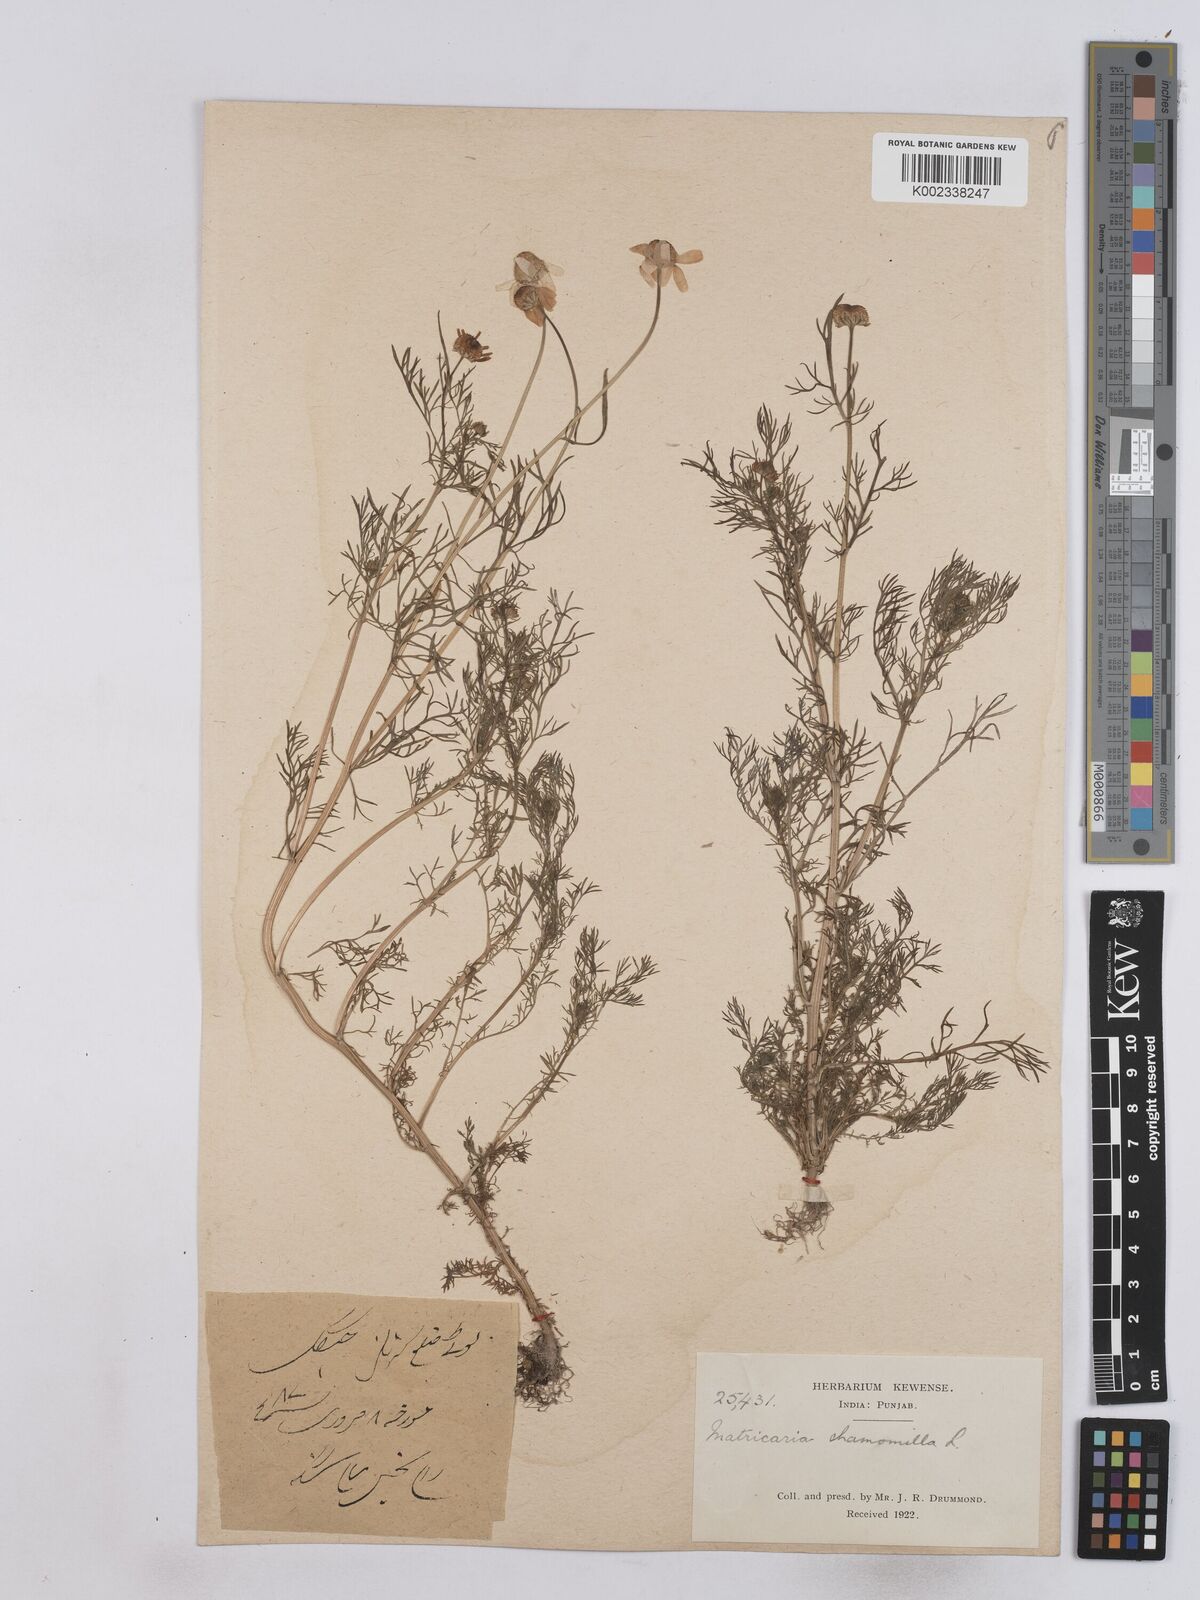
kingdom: Plantae
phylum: Tracheophyta
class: Magnoliopsida
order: Asterales
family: Asteraceae
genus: Matricaria
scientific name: Matricaria chamomilla
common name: Scented mayweed
